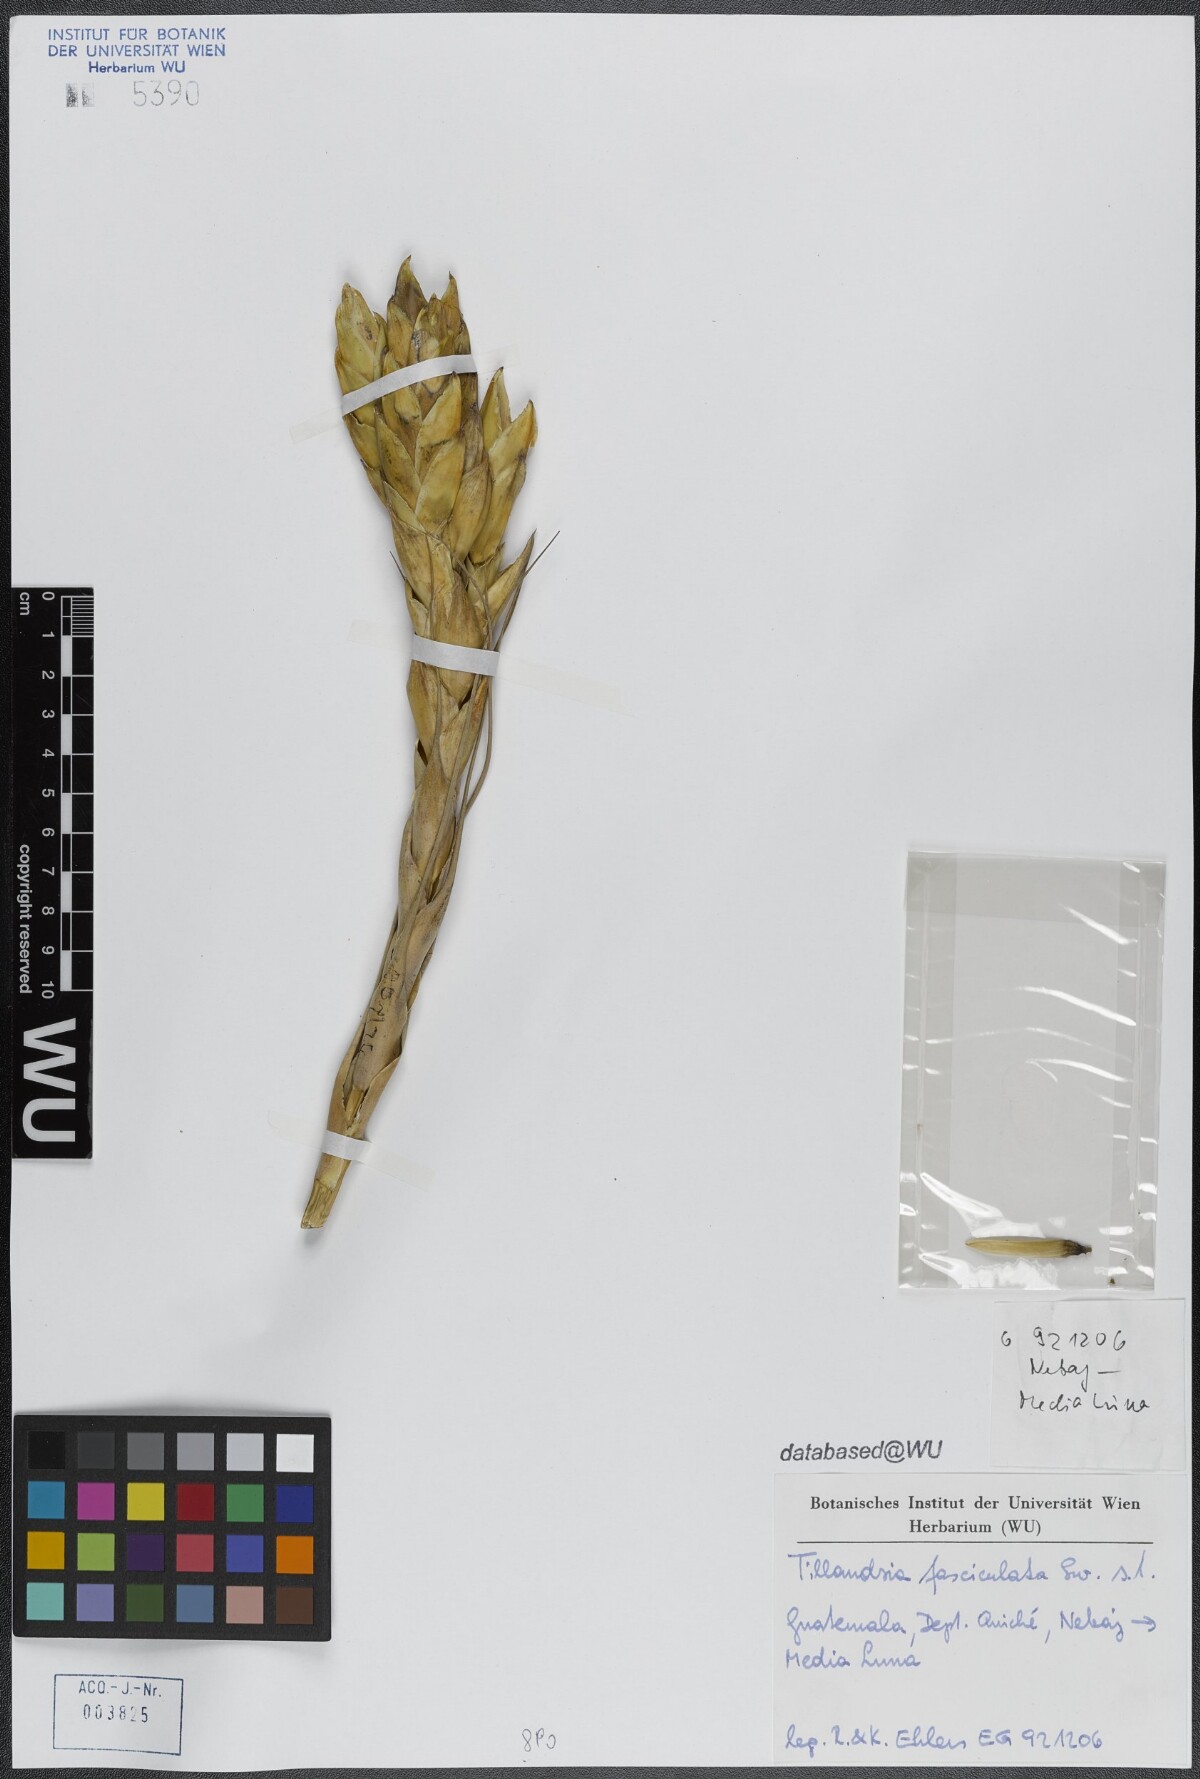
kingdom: Plantae
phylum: Tracheophyta
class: Liliopsida
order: Poales
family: Bromeliaceae
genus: Tillandsia
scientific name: Tillandsia fasciculata
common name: Giant airplant
